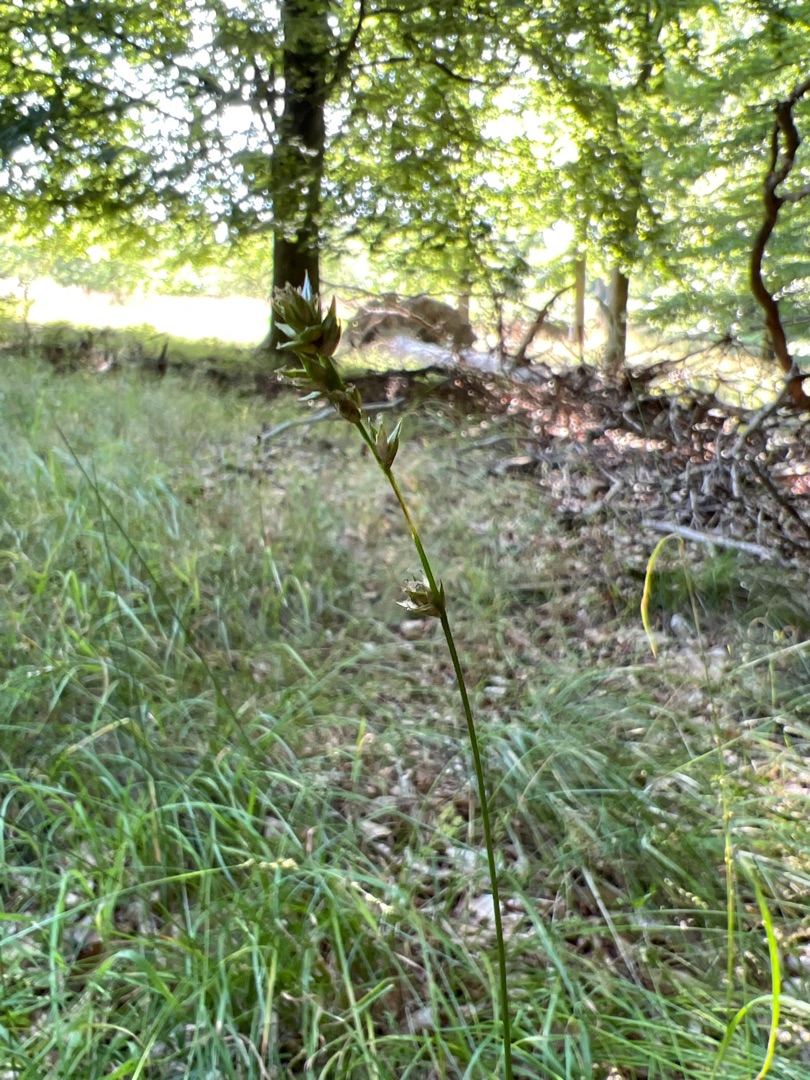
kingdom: Plantae
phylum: Tracheophyta
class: Liliopsida
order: Poales
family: Cyperaceae
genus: Carex
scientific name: Carex leersii
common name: Mellembrudt star (underart)
